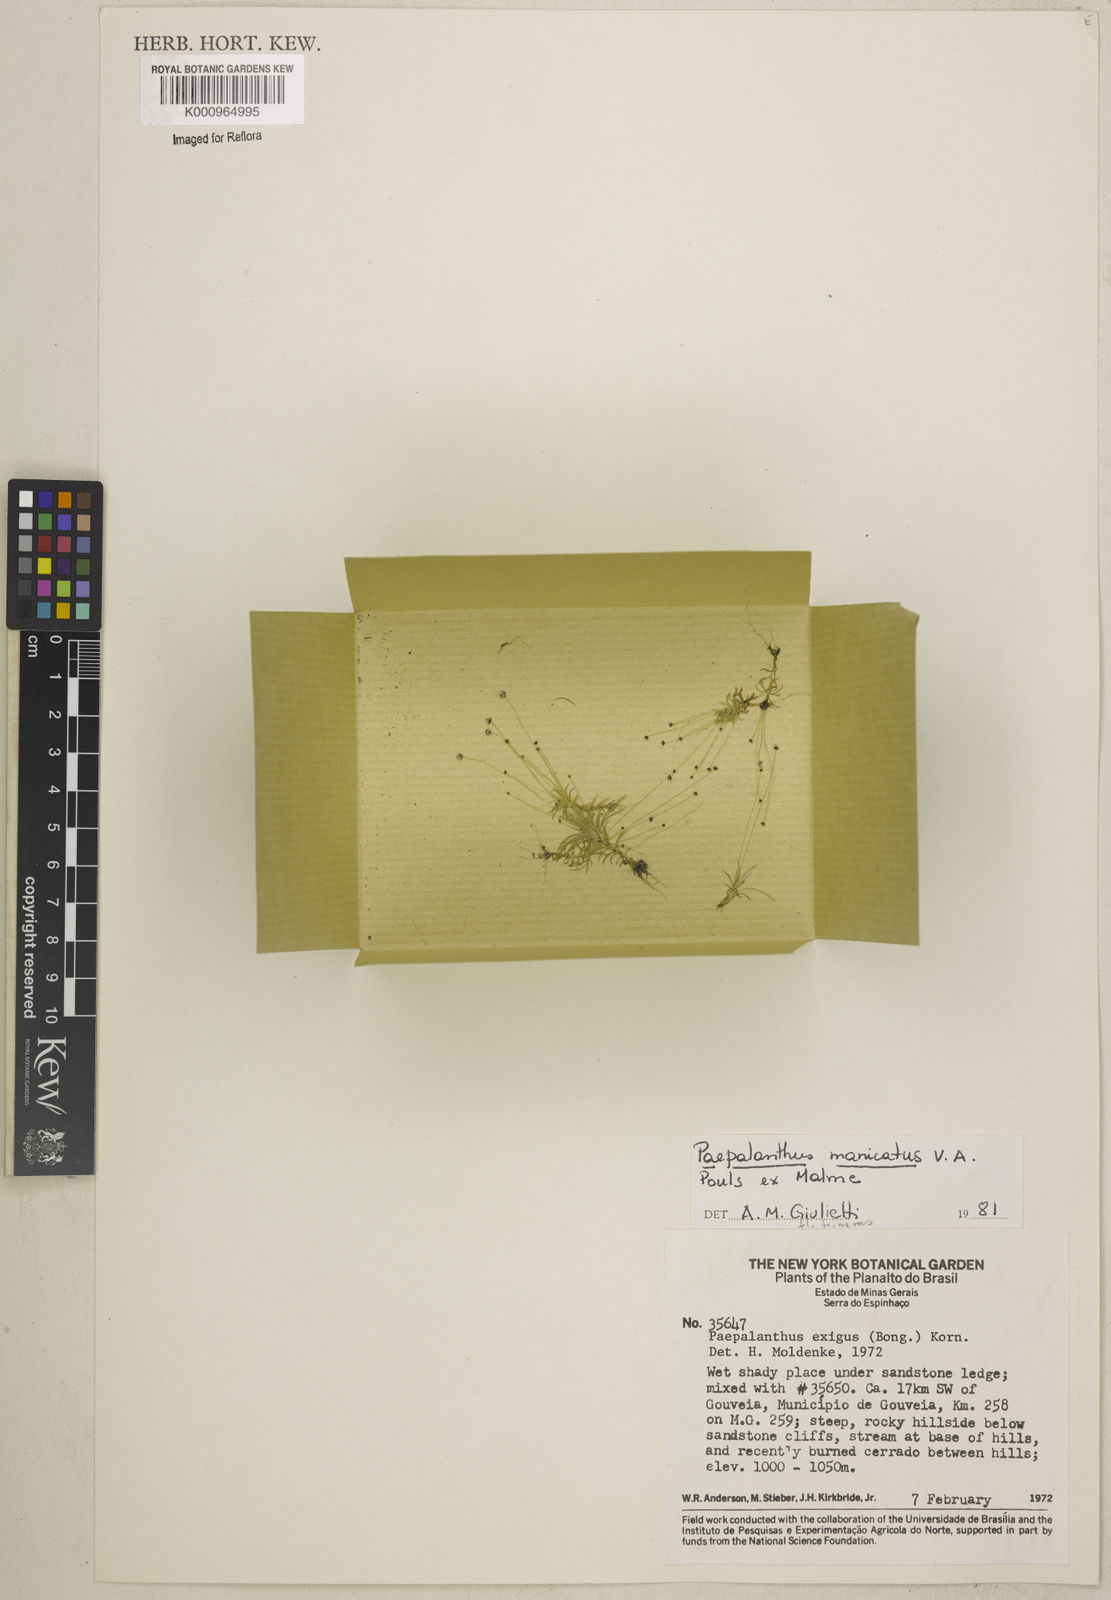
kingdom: Plantae
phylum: Tracheophyta
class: Liliopsida
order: Poales
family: Eriocaulaceae
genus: Paepalanthus
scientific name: Paepalanthus manicatus
